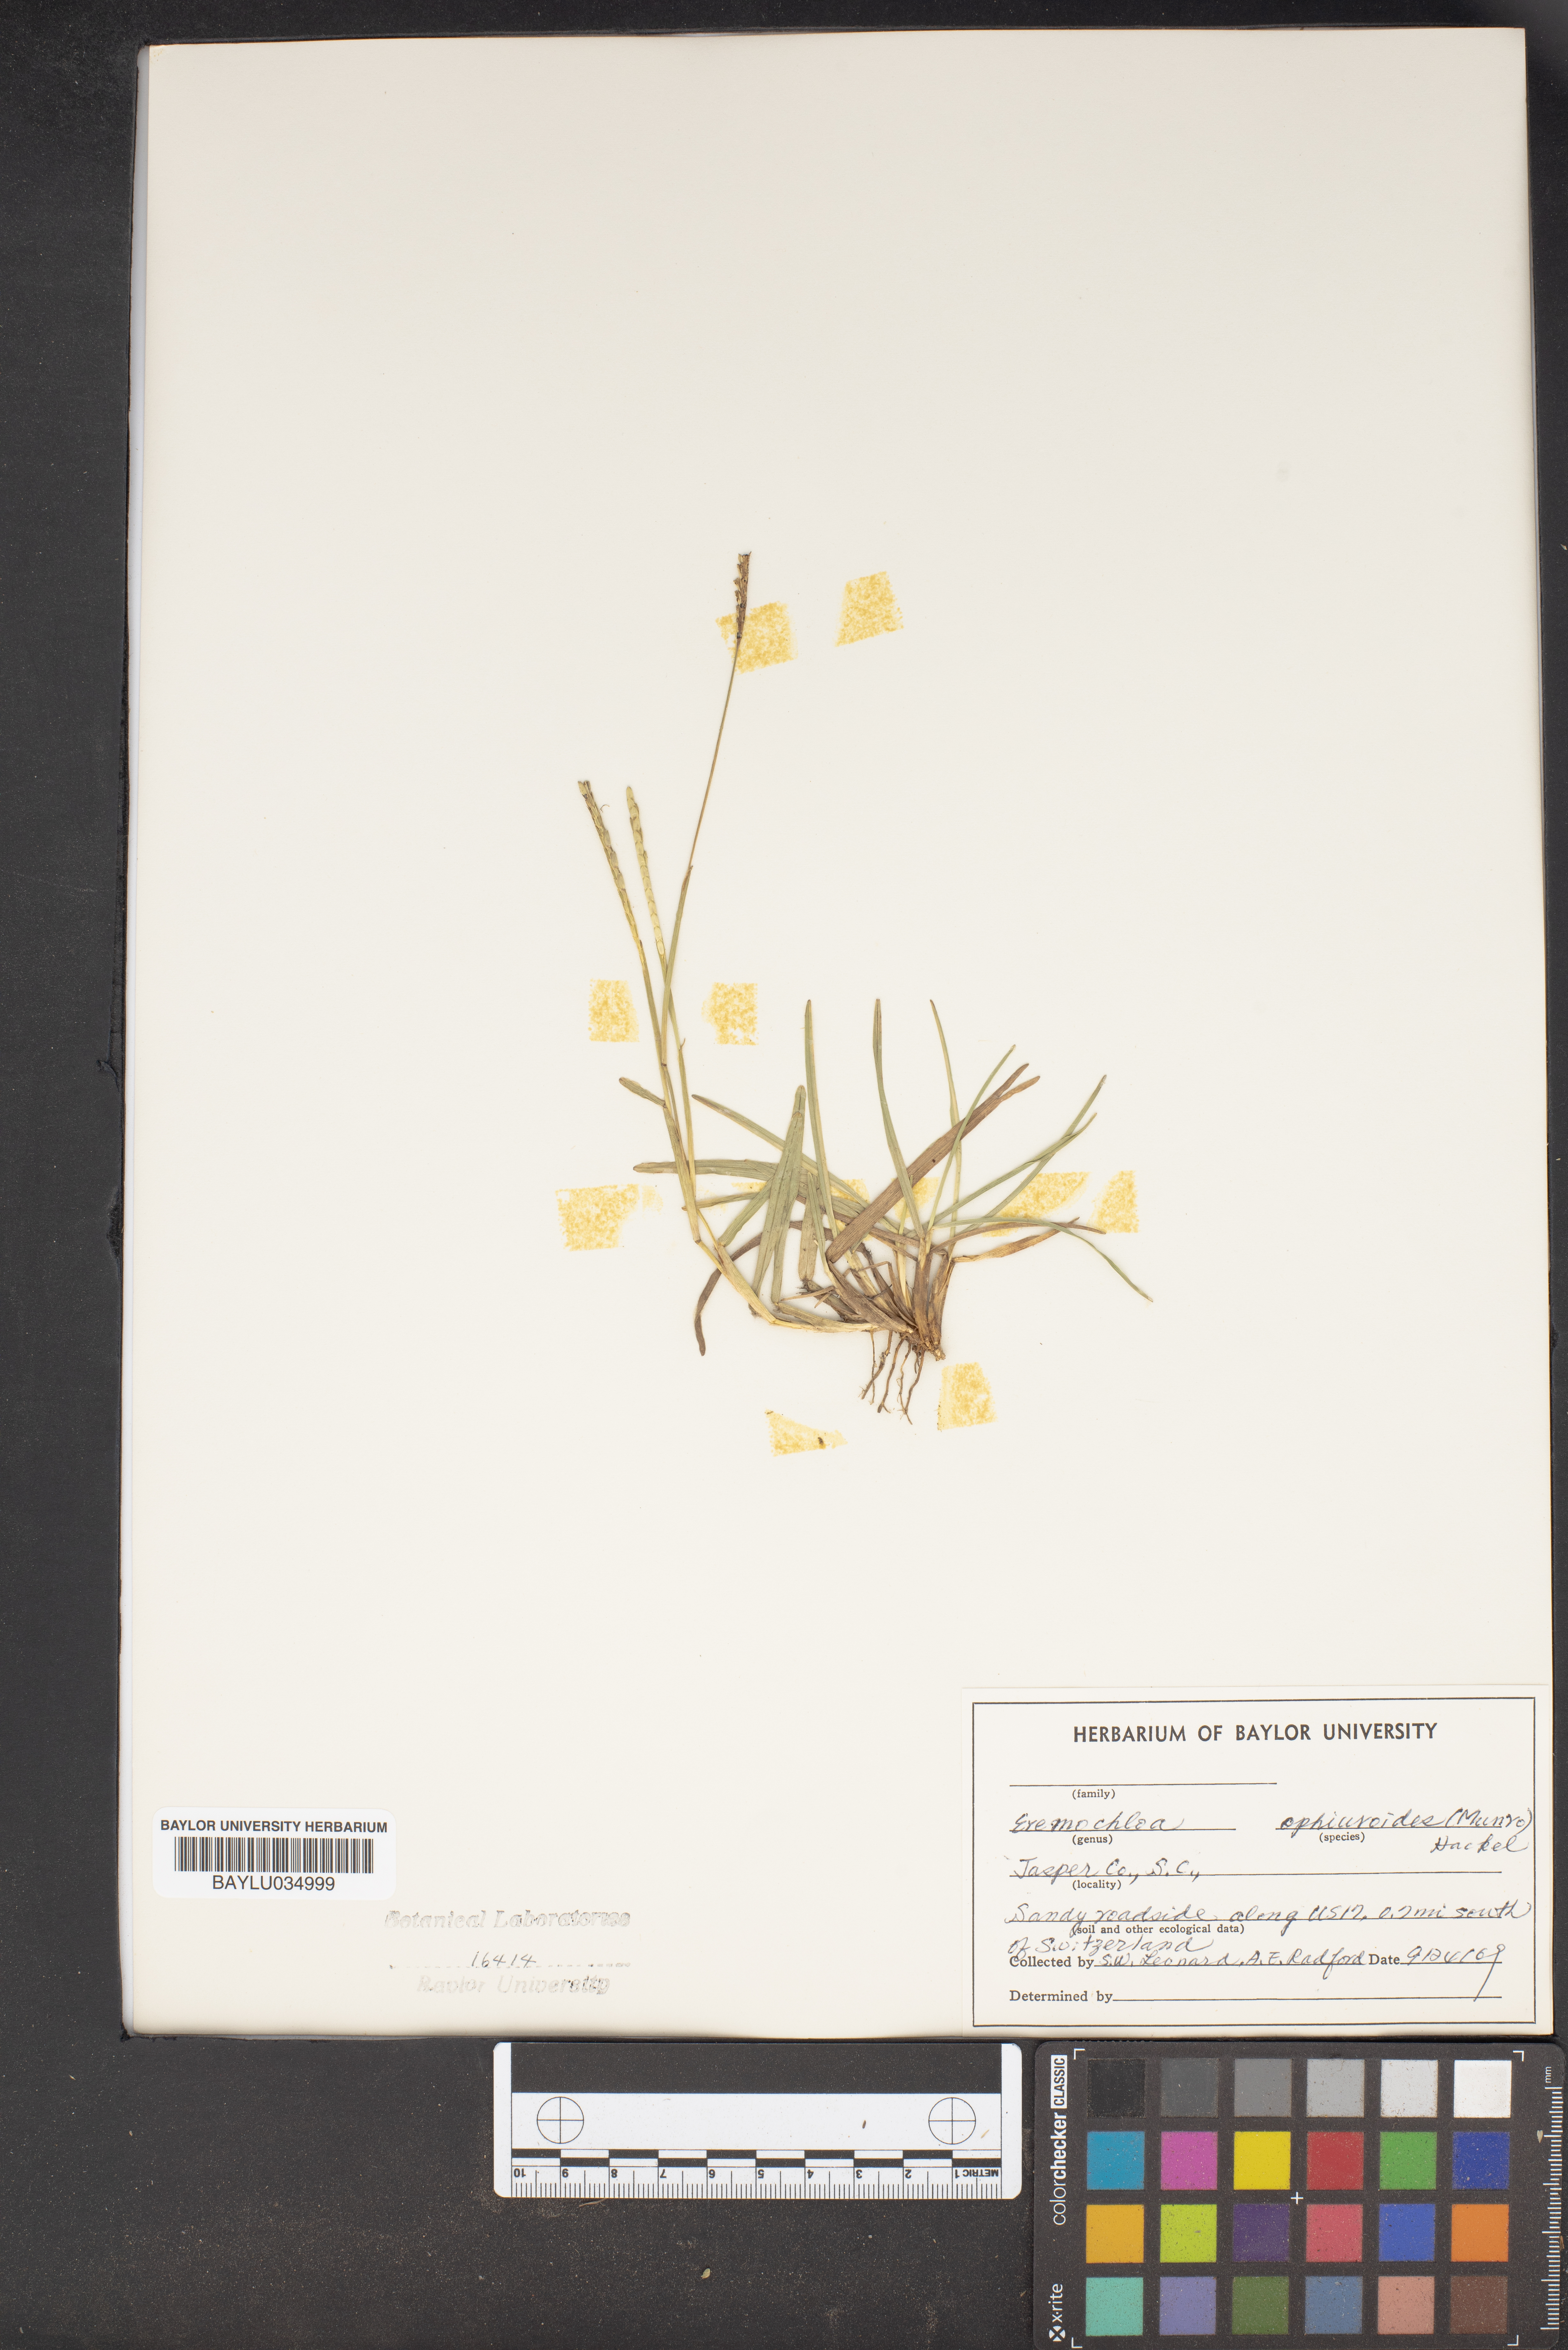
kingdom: Plantae
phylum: Tracheophyta
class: Liliopsida
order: Poales
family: Poaceae
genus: Eremochloa
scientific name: Eremochloa ophiuroides
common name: Centipede grass
